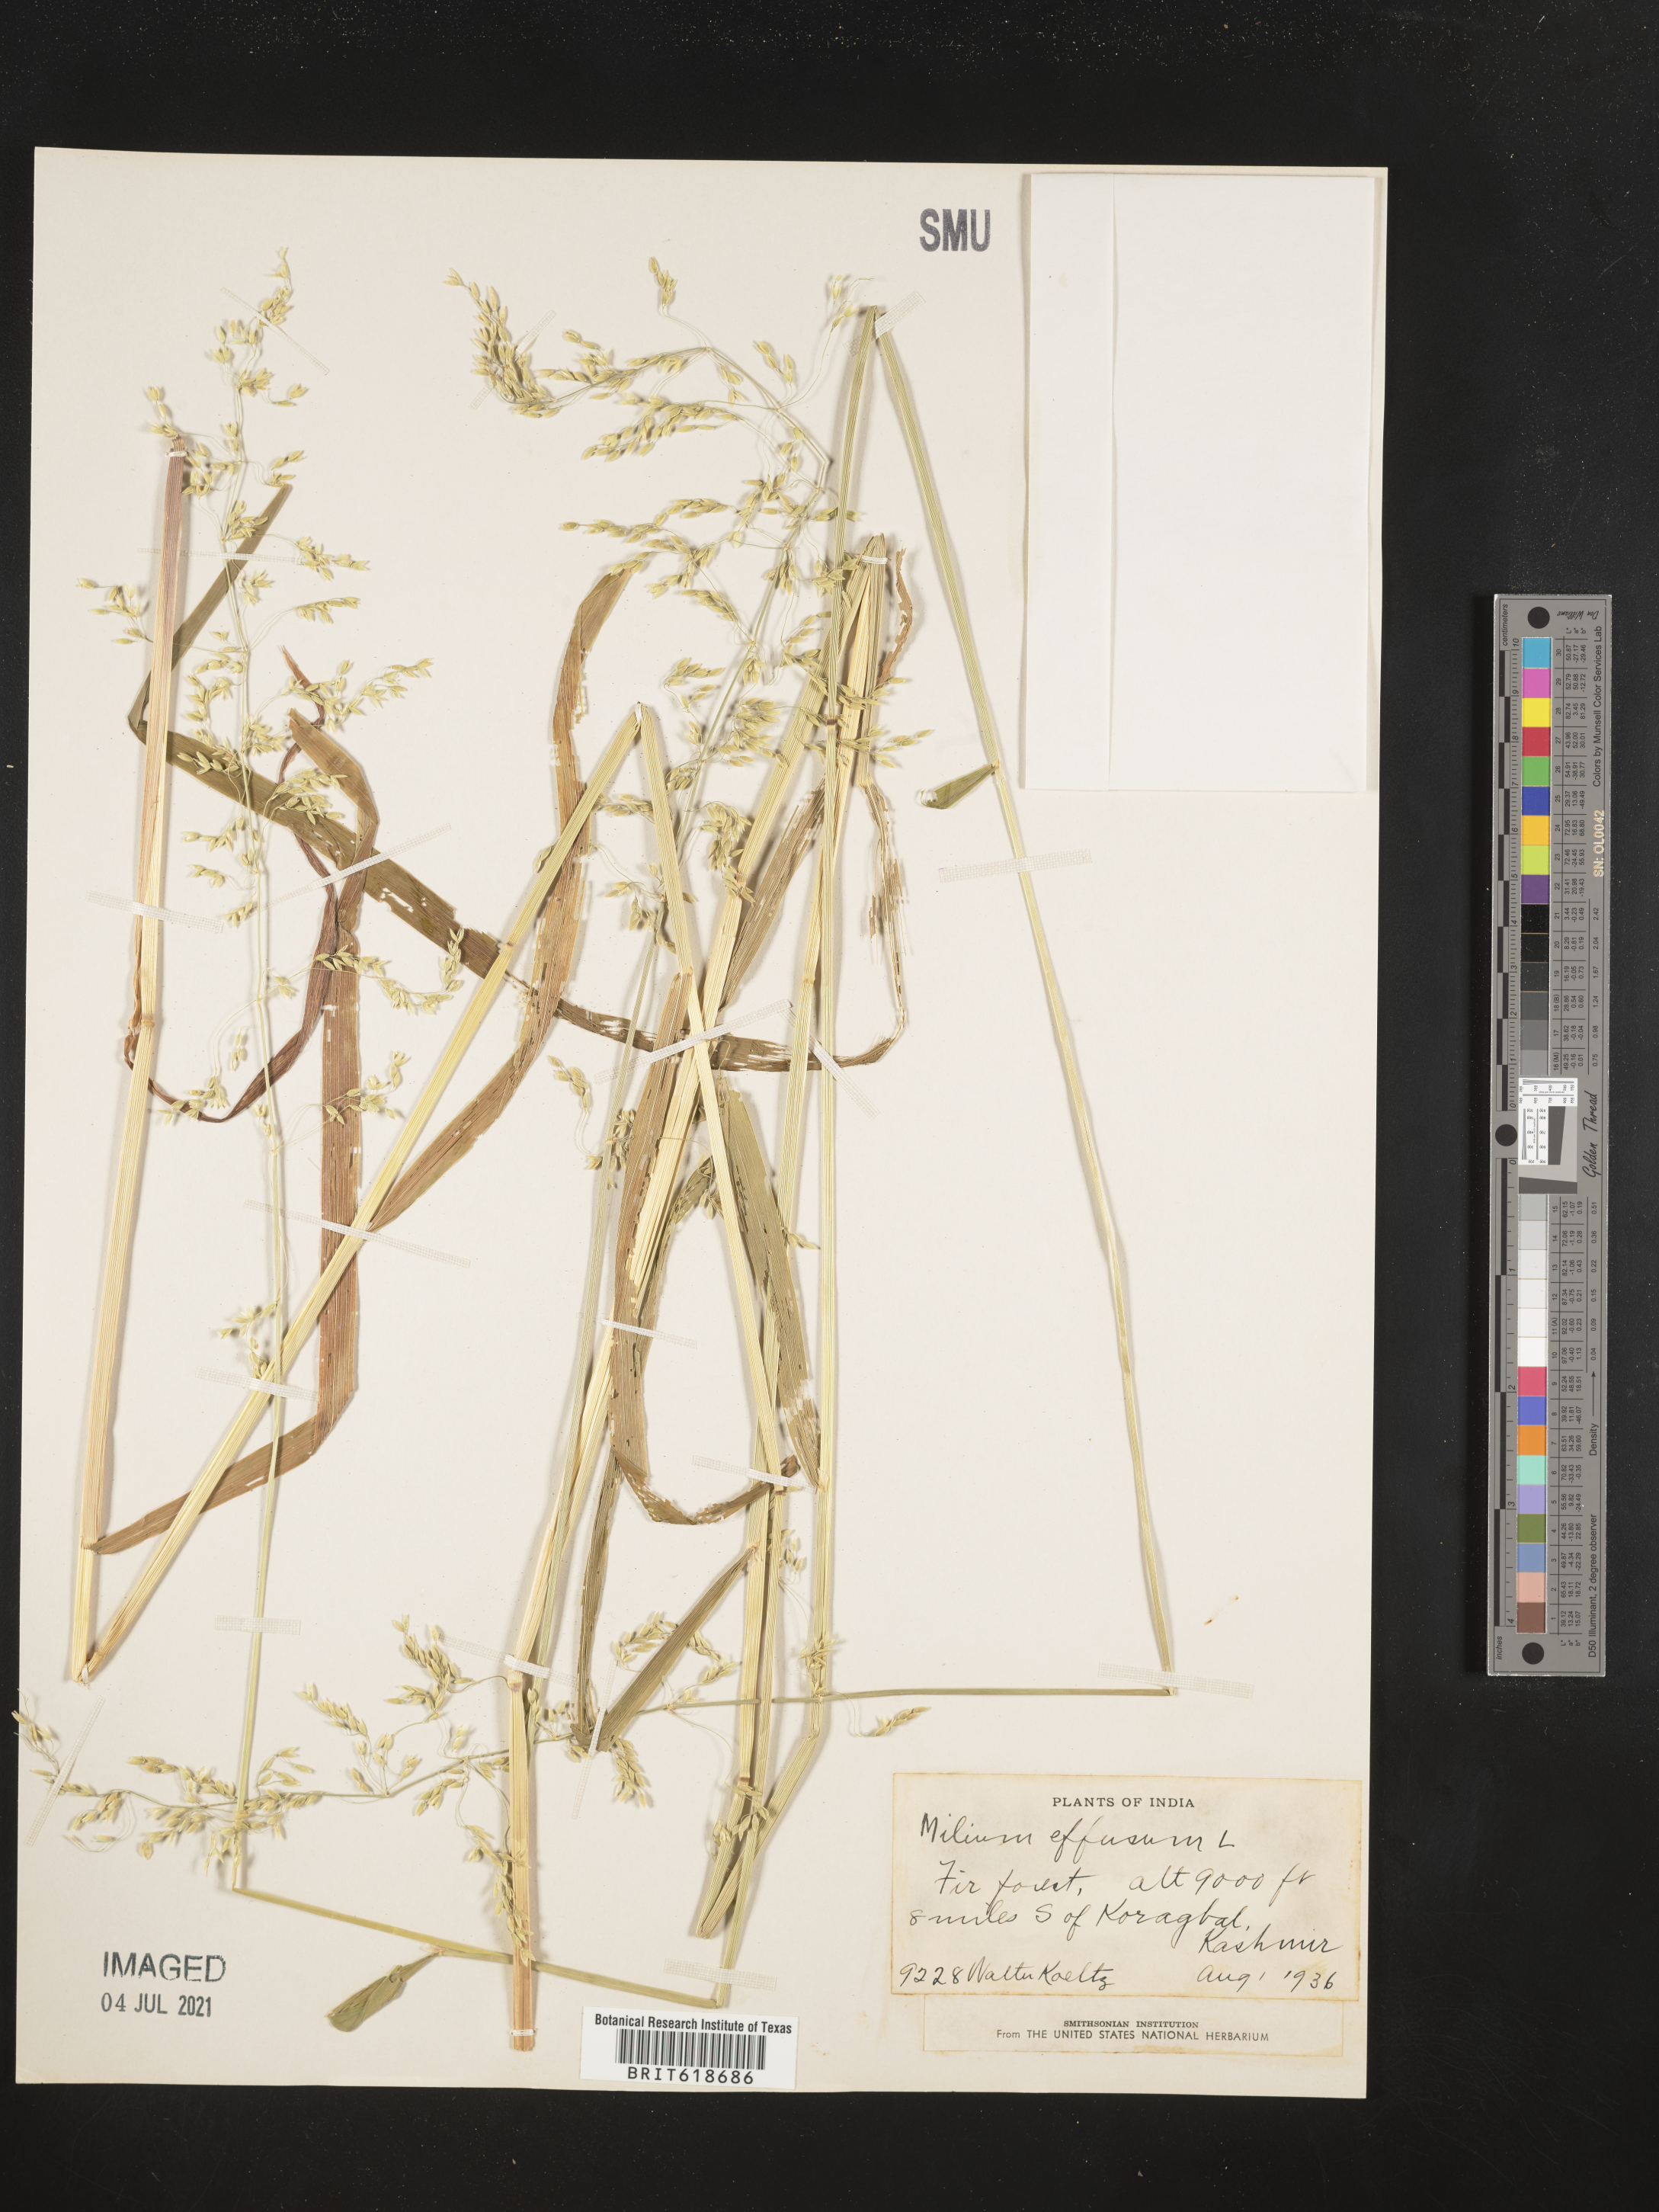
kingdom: Plantae
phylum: Tracheophyta
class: Liliopsida
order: Poales
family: Poaceae
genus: Milium
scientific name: Milium effusum
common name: Wood millet
